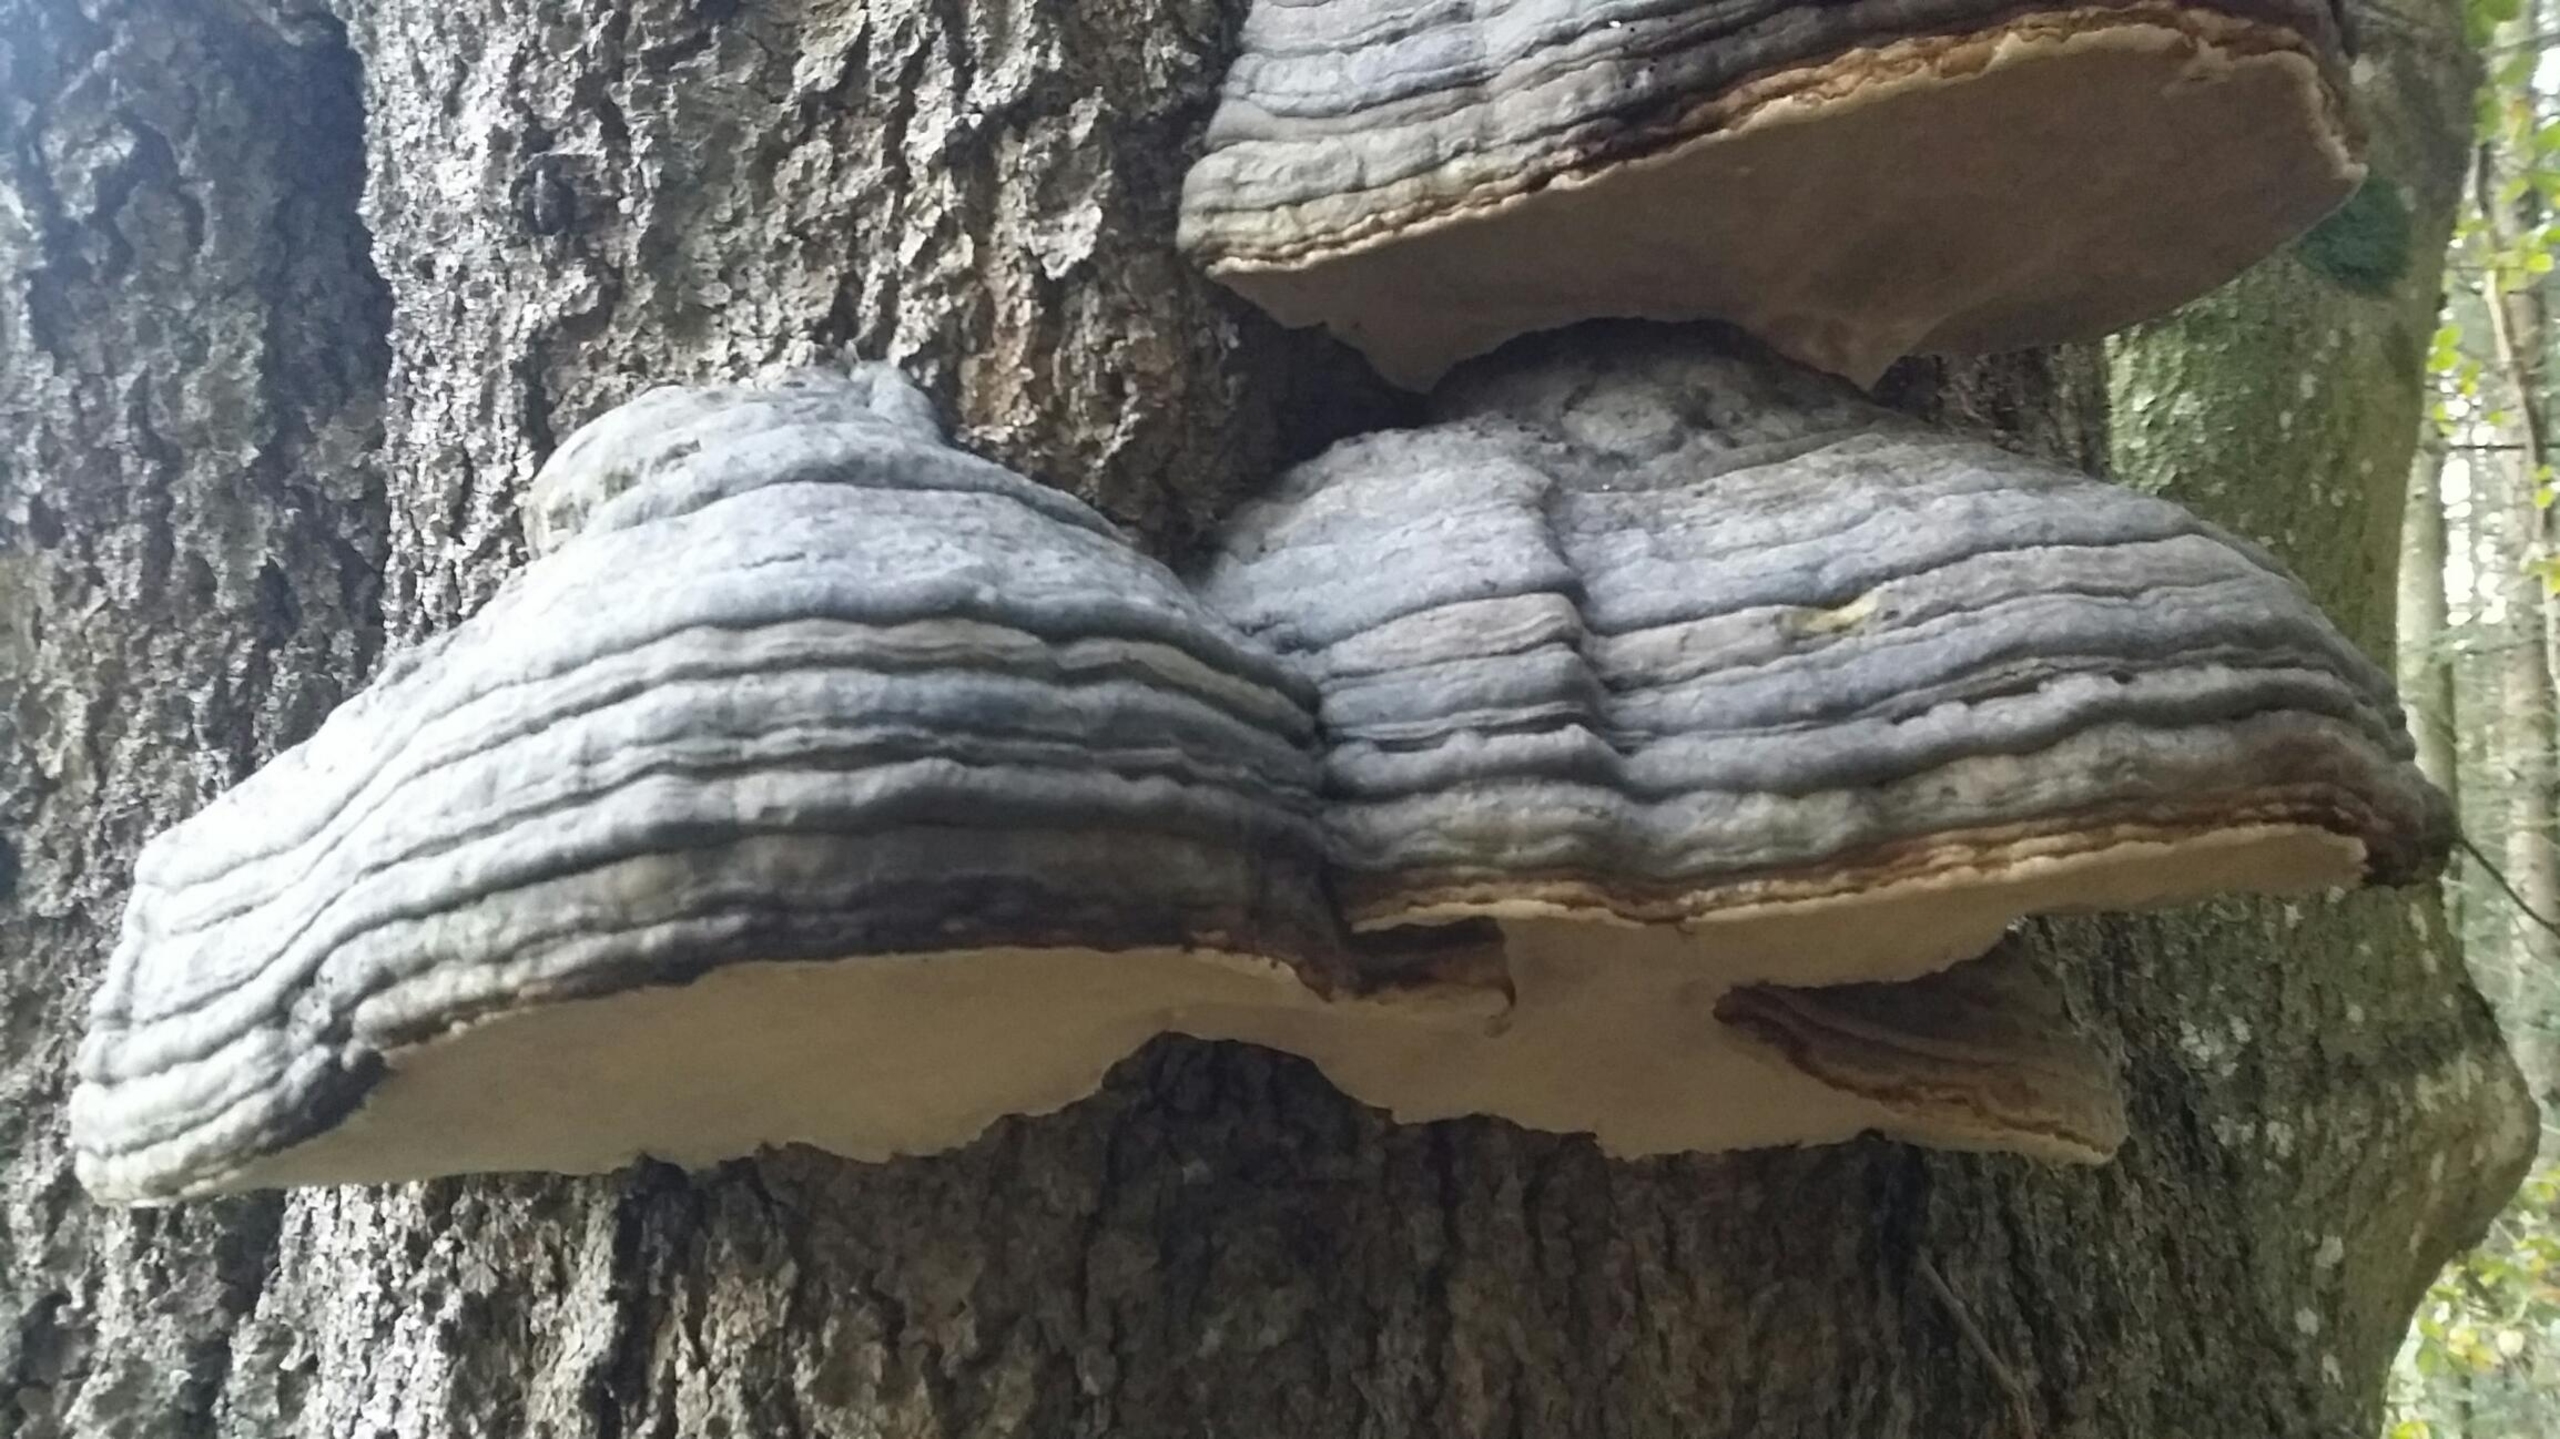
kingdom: Fungi
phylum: Basidiomycota
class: Agaricomycetes
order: Polyporales
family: Polyporaceae
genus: Fomes
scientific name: Fomes fomentarius
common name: Tøndersvamp
